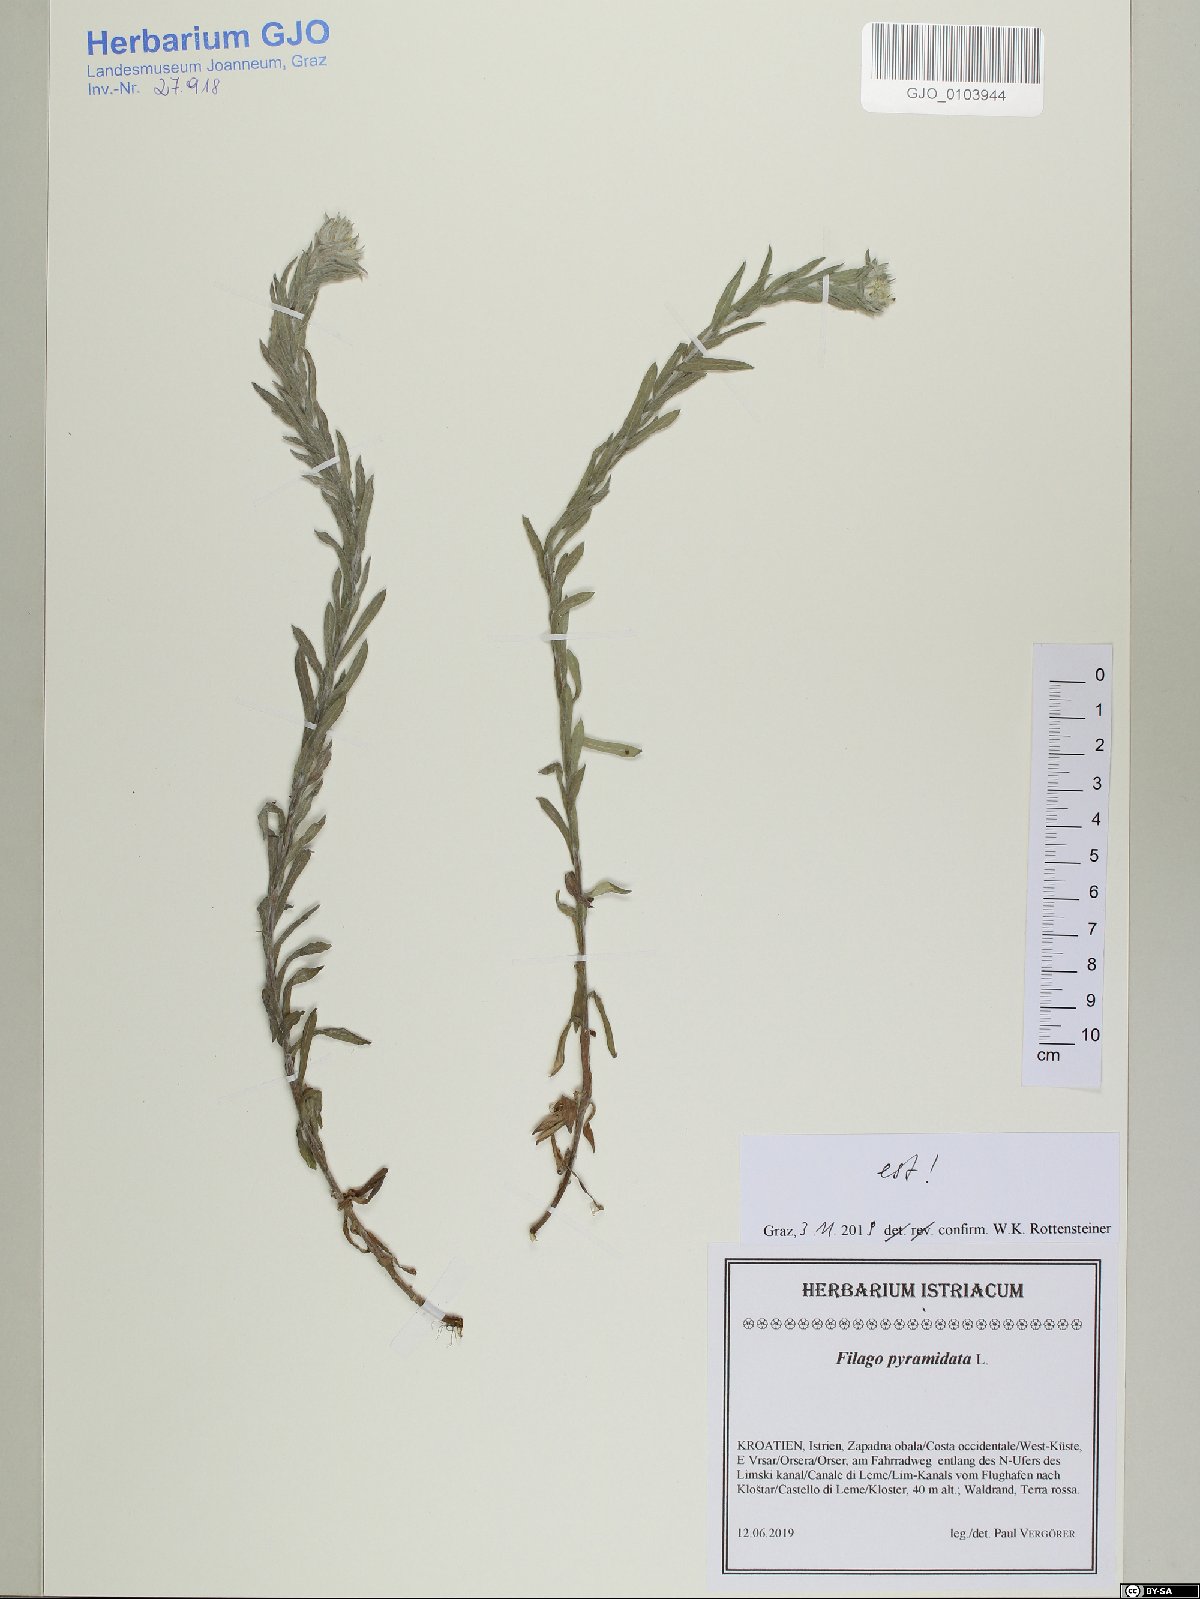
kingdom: Plantae
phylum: Tracheophyta
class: Magnoliopsida
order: Asterales
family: Asteraceae
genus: Filago
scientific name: Filago pyramidata
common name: Broad-leaved cudweed
